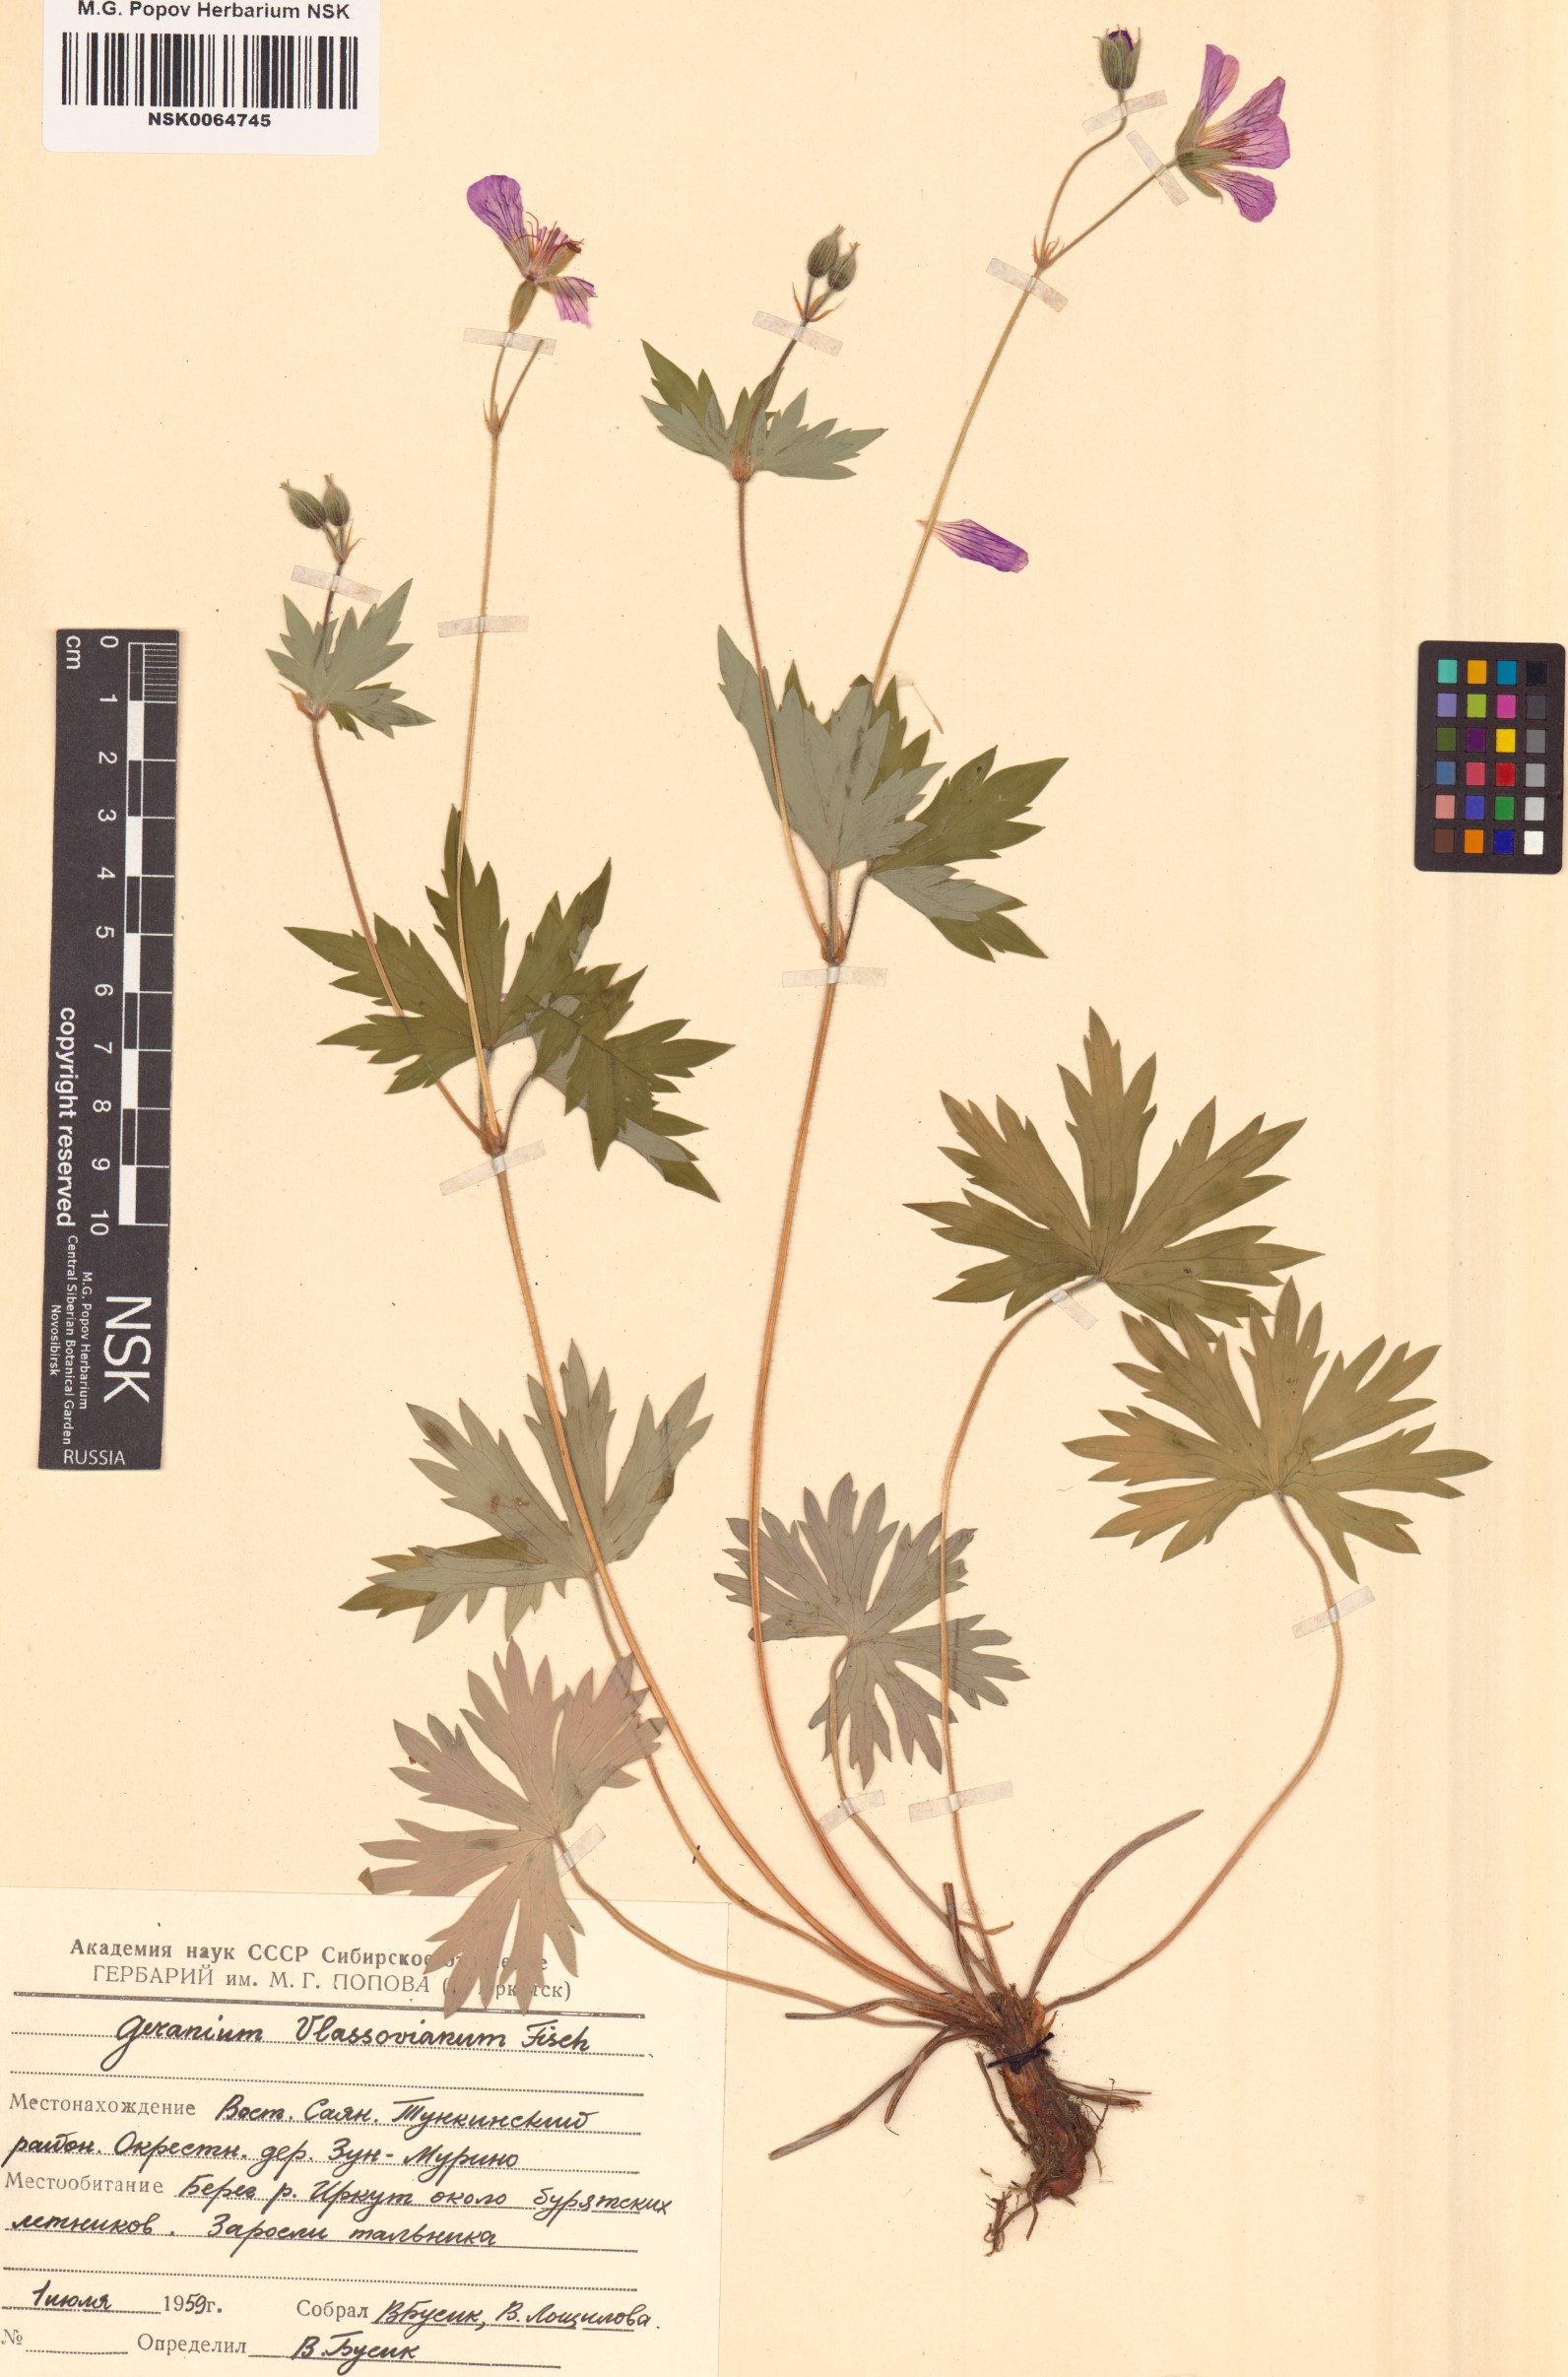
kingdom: Plantae
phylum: Tracheophyta
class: Magnoliopsida
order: Geraniales
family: Geraniaceae
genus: Geranium
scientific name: Geranium wlassovianum
